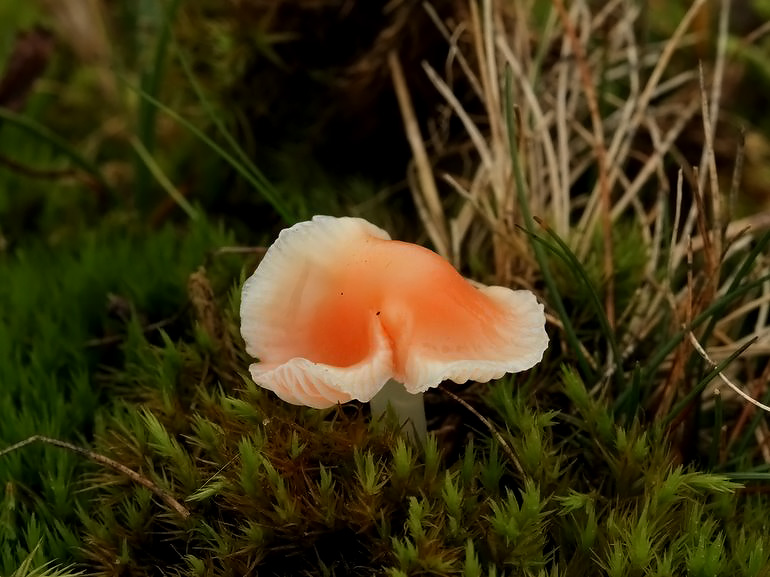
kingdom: Fungi
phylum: Basidiomycota
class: Agaricomycetes
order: Agaricales
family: Mycenaceae
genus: Atheniella
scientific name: Atheniella adonis
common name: rønnerød huesvamp
